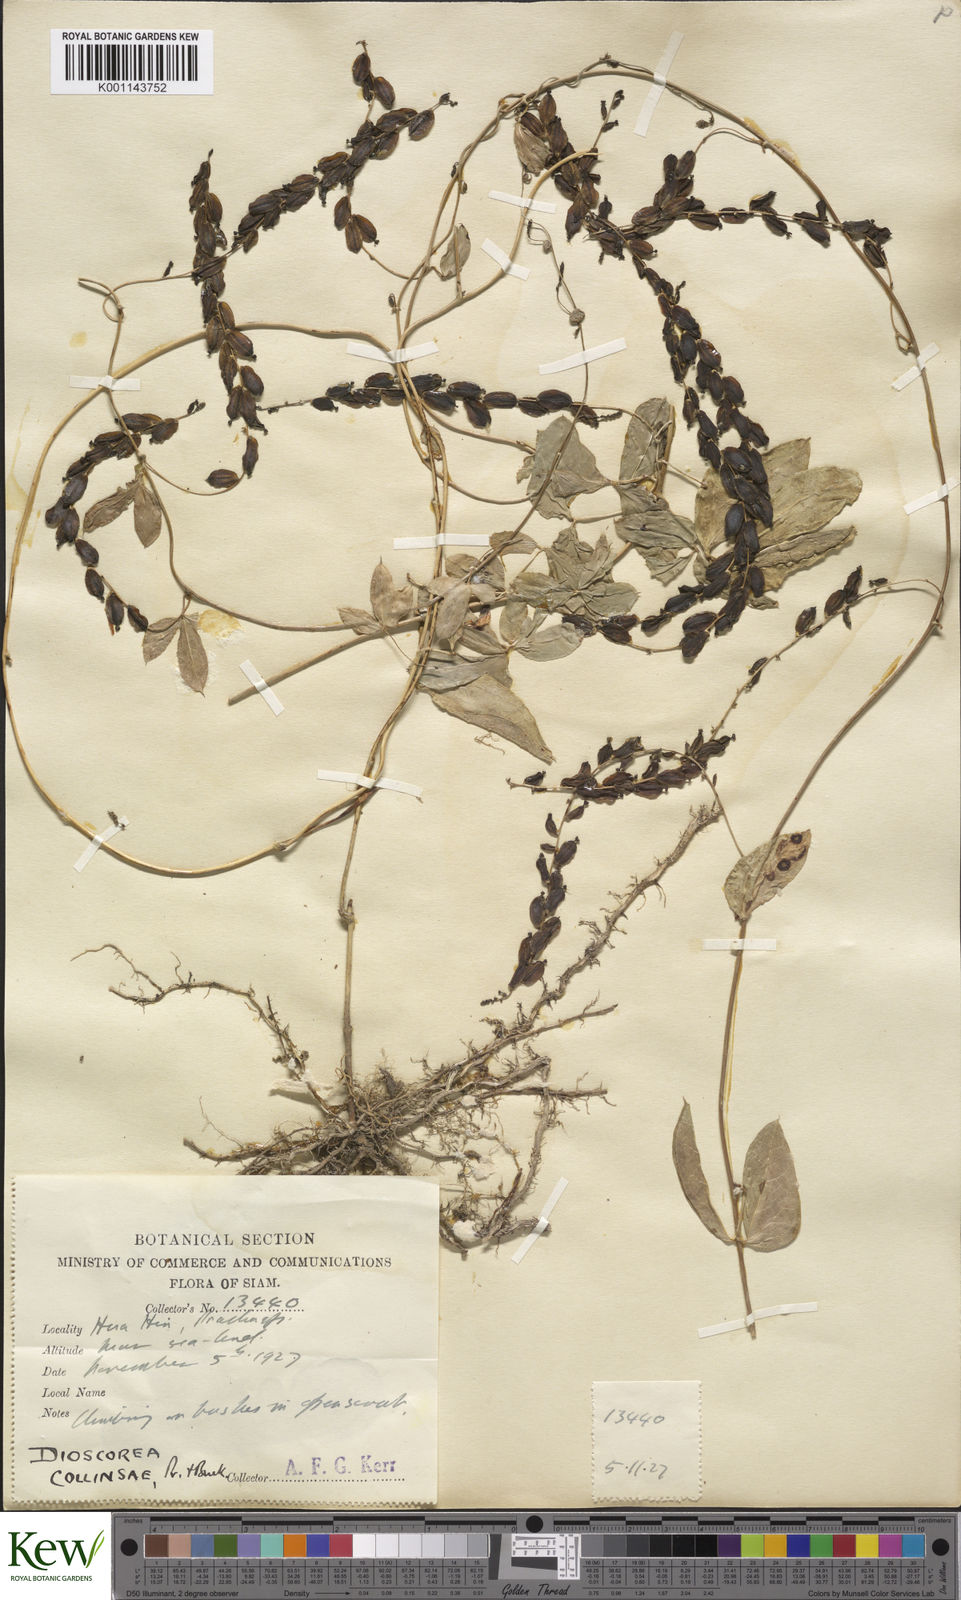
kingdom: Plantae
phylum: Tracheophyta
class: Liliopsida
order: Dioscoreales
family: Dioscoreaceae
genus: Dioscorea
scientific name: Dioscorea arachidna
